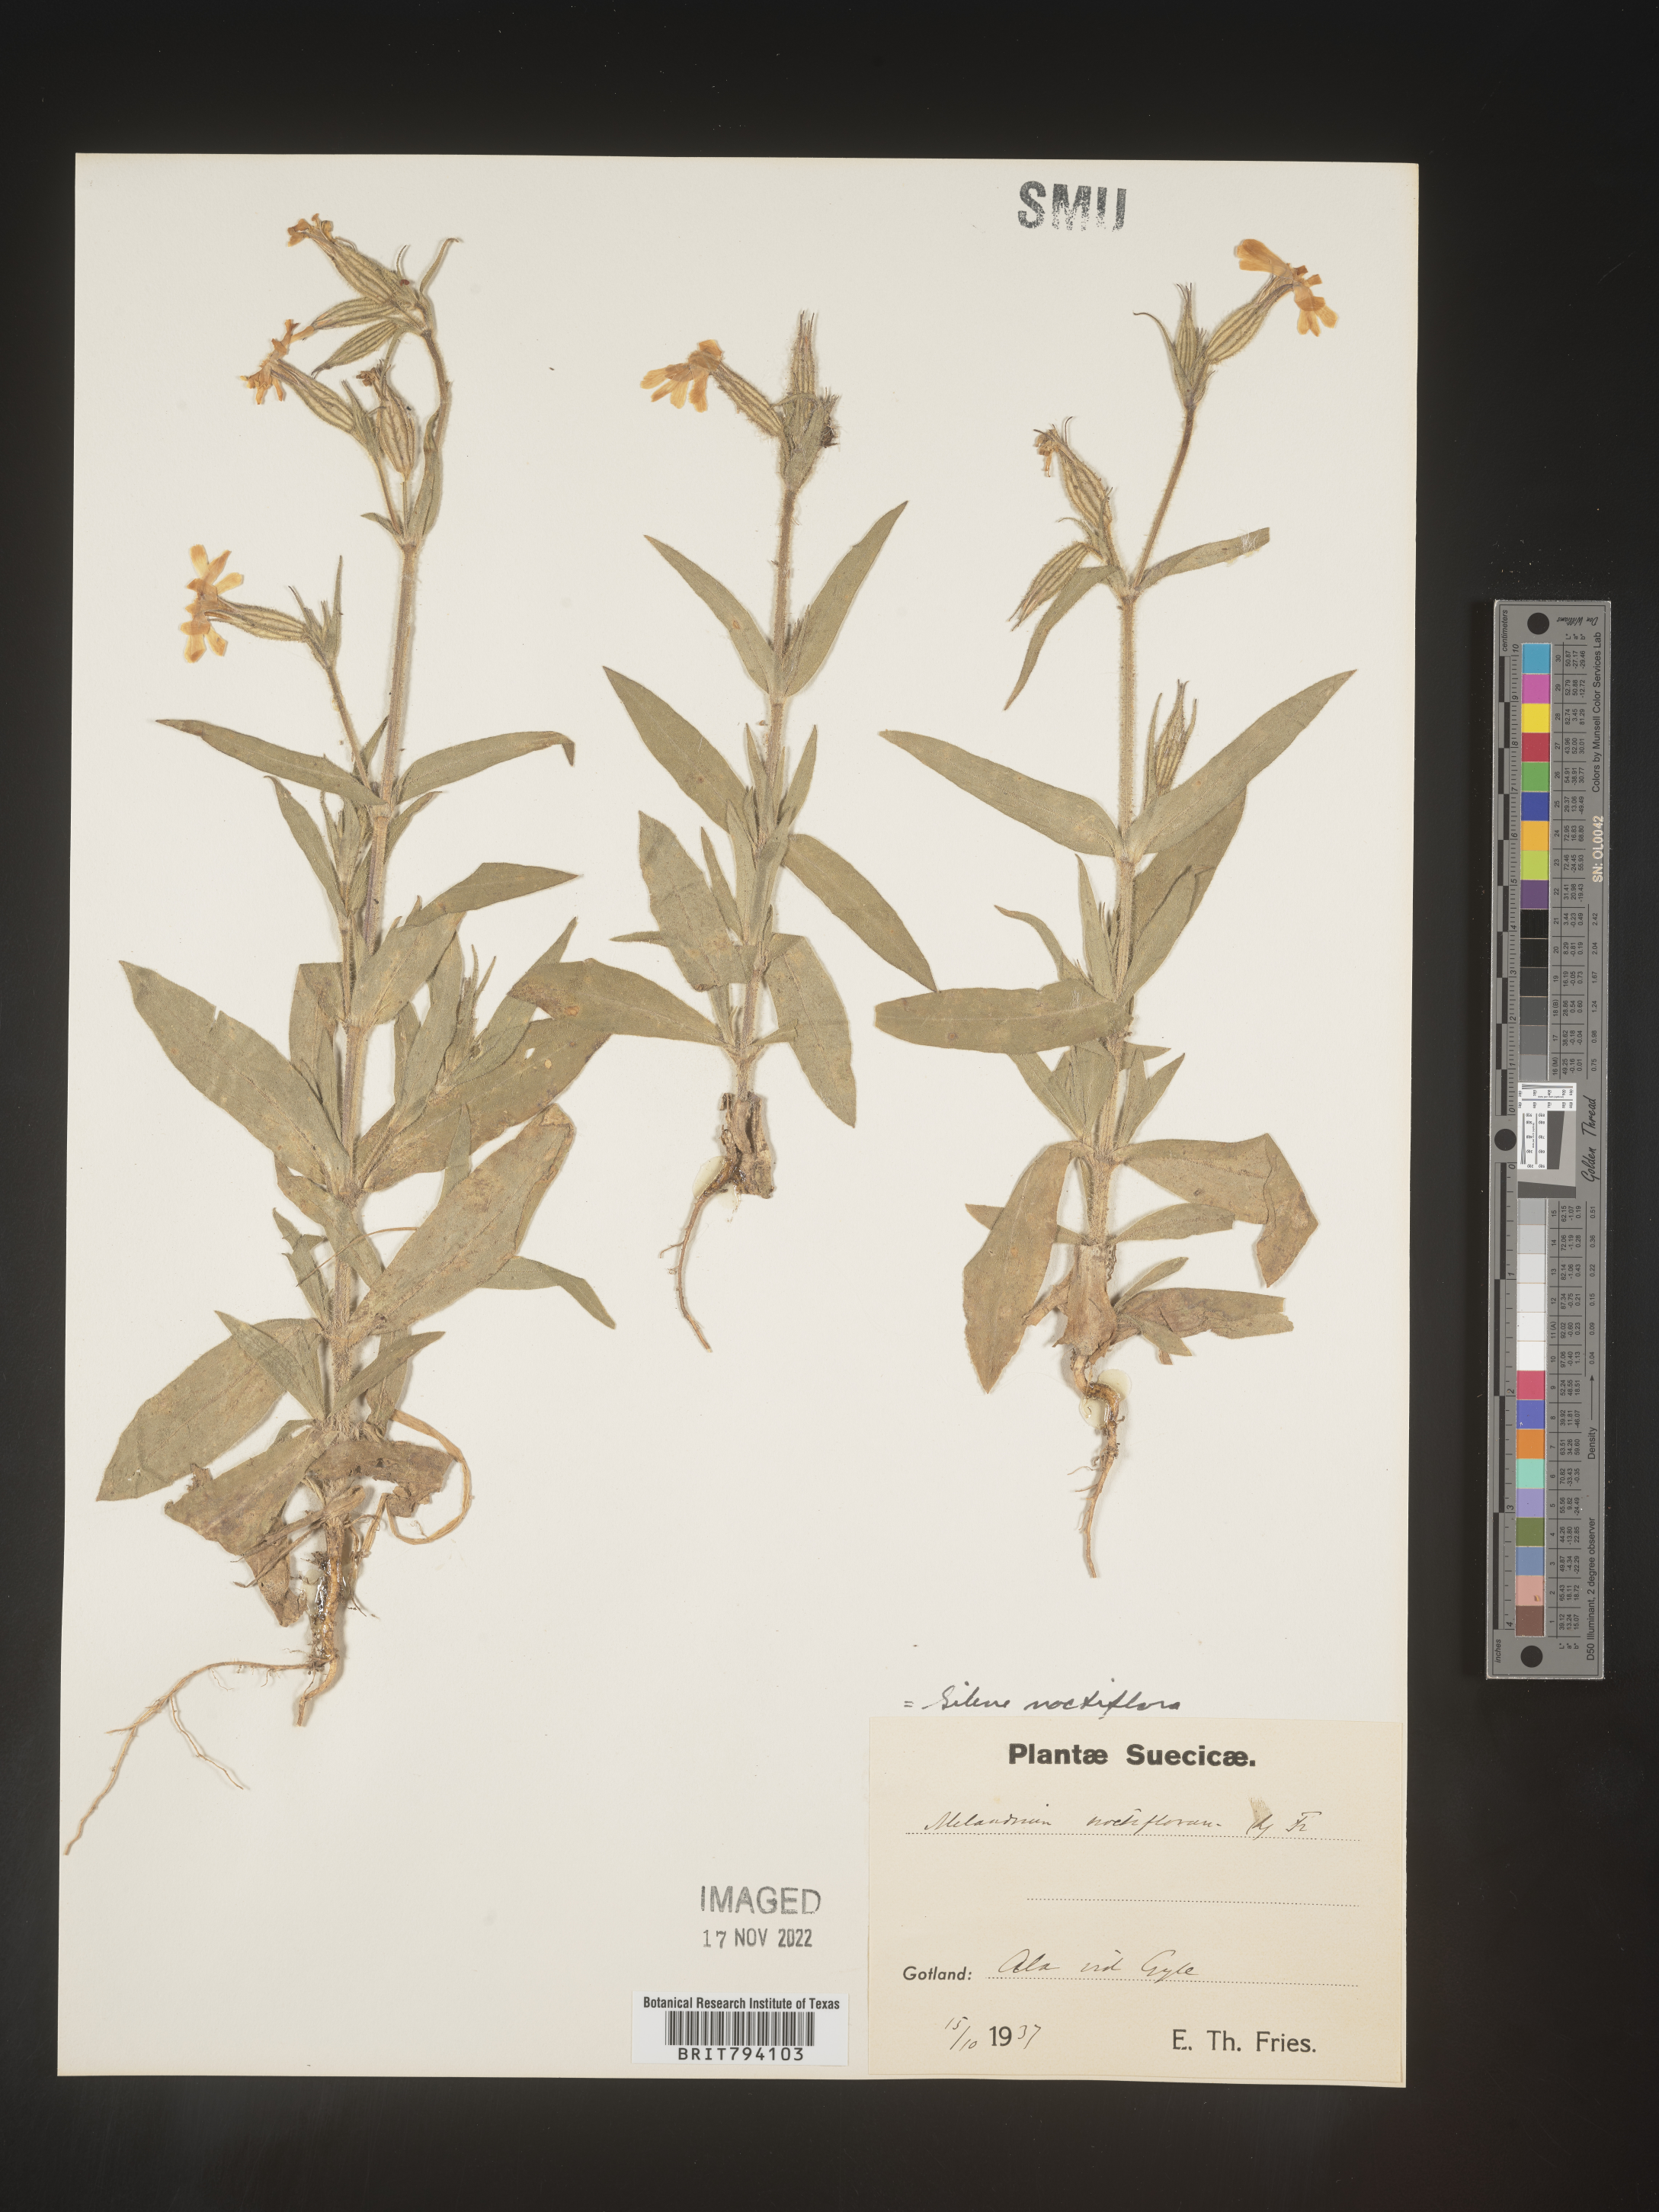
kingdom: Plantae
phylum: Tracheophyta
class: Magnoliopsida
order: Caryophyllales
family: Caryophyllaceae
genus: Silene
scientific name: Silene noctiflora
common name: Night-flowering catchfly
